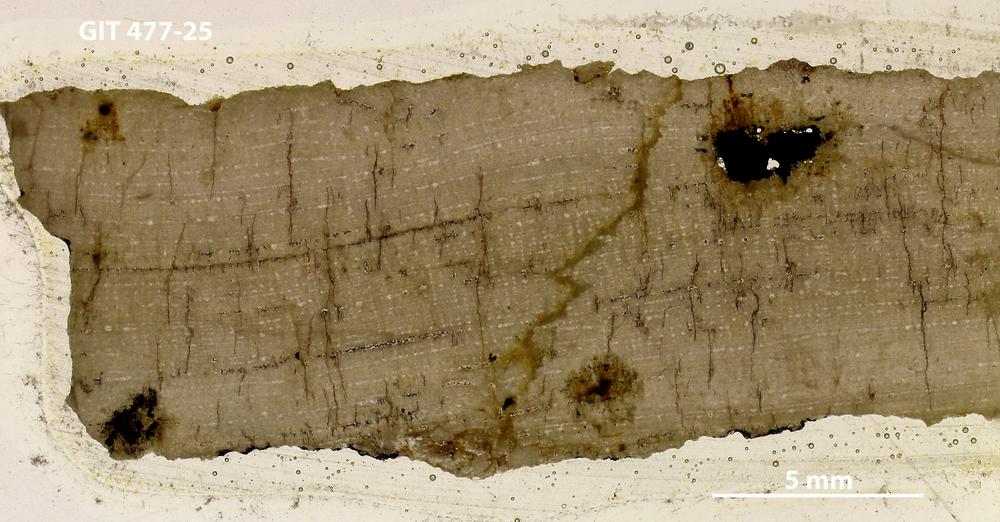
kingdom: Animalia
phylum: Porifera
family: Stromatoporidae
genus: Parallelostroma
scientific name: Parallelostroma foveolatum
